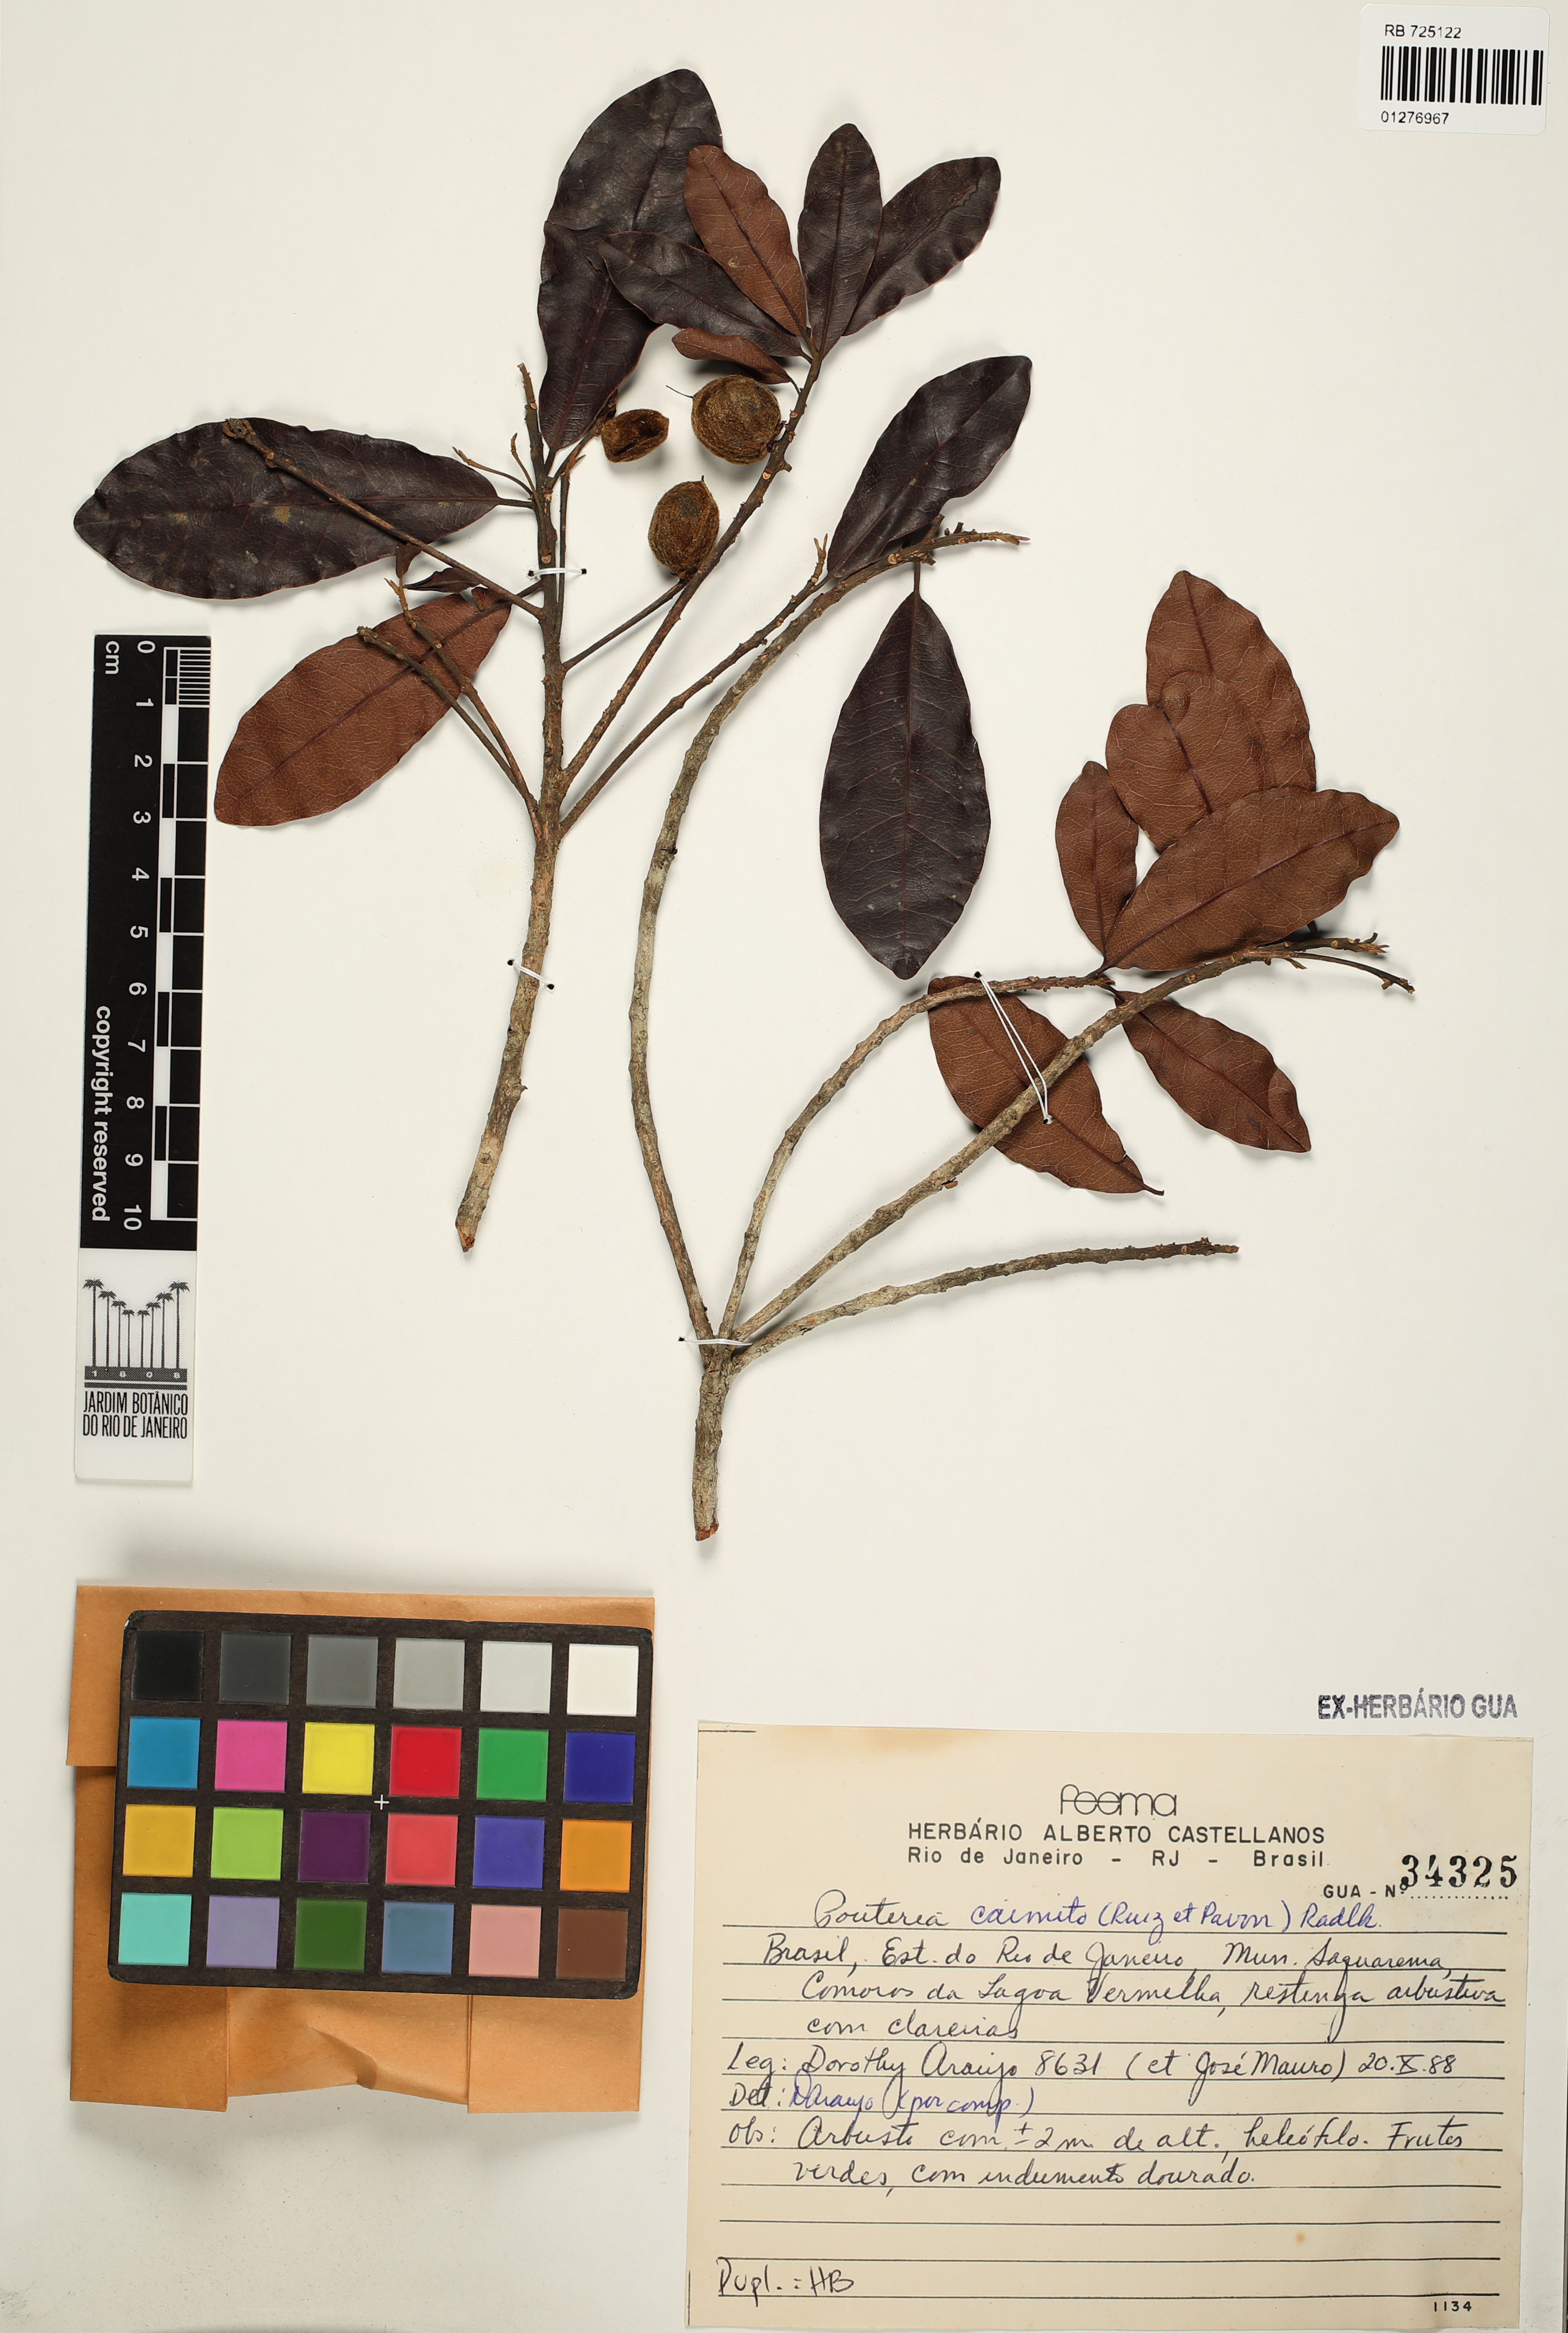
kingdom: Plantae
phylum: Tracheophyta
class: Magnoliopsida
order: Ericales
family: Sapotaceae
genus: Pouteria
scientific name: Pouteria caimito
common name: Caimito
